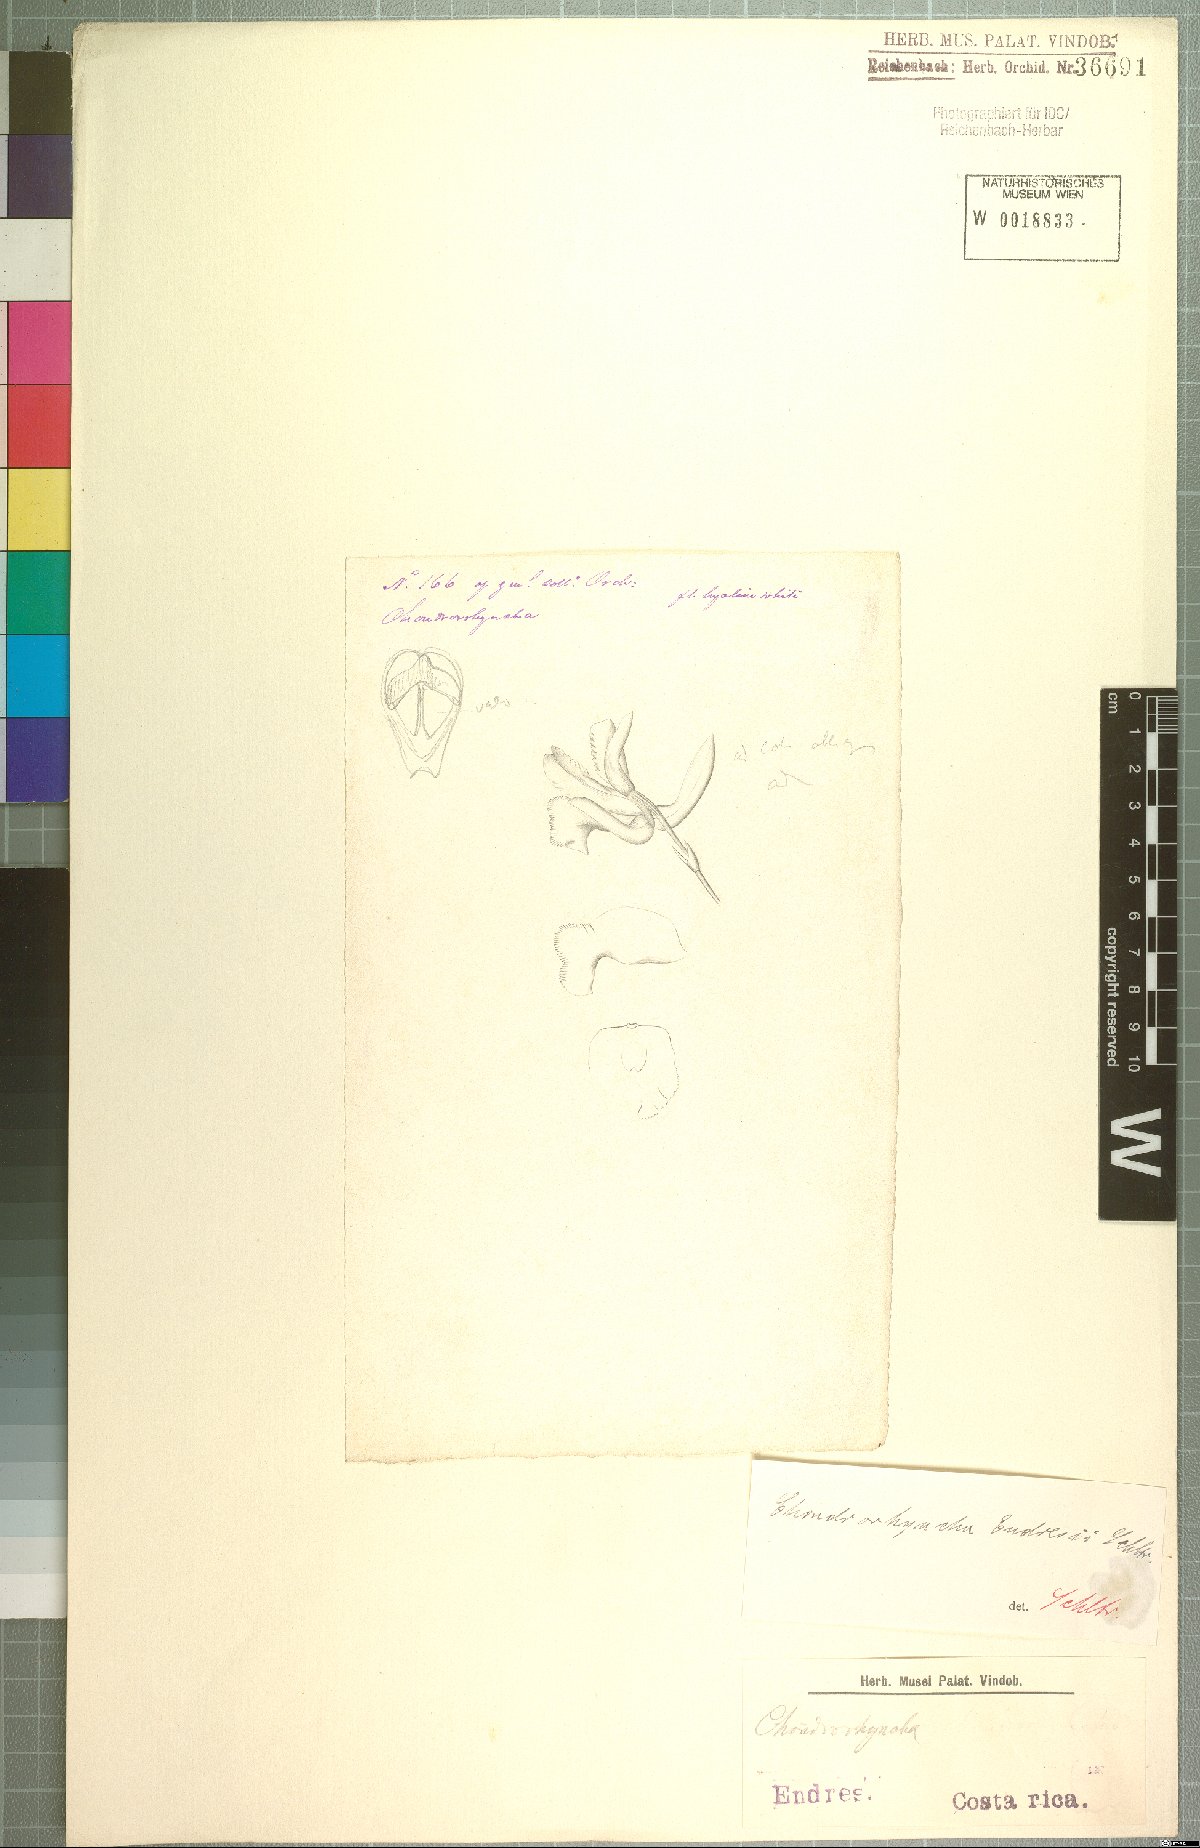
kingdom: Plantae
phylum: Tracheophyta
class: Liliopsida
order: Asparagales
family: Orchidaceae
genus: Chondroscaphe
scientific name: Chondroscaphe bicolor
